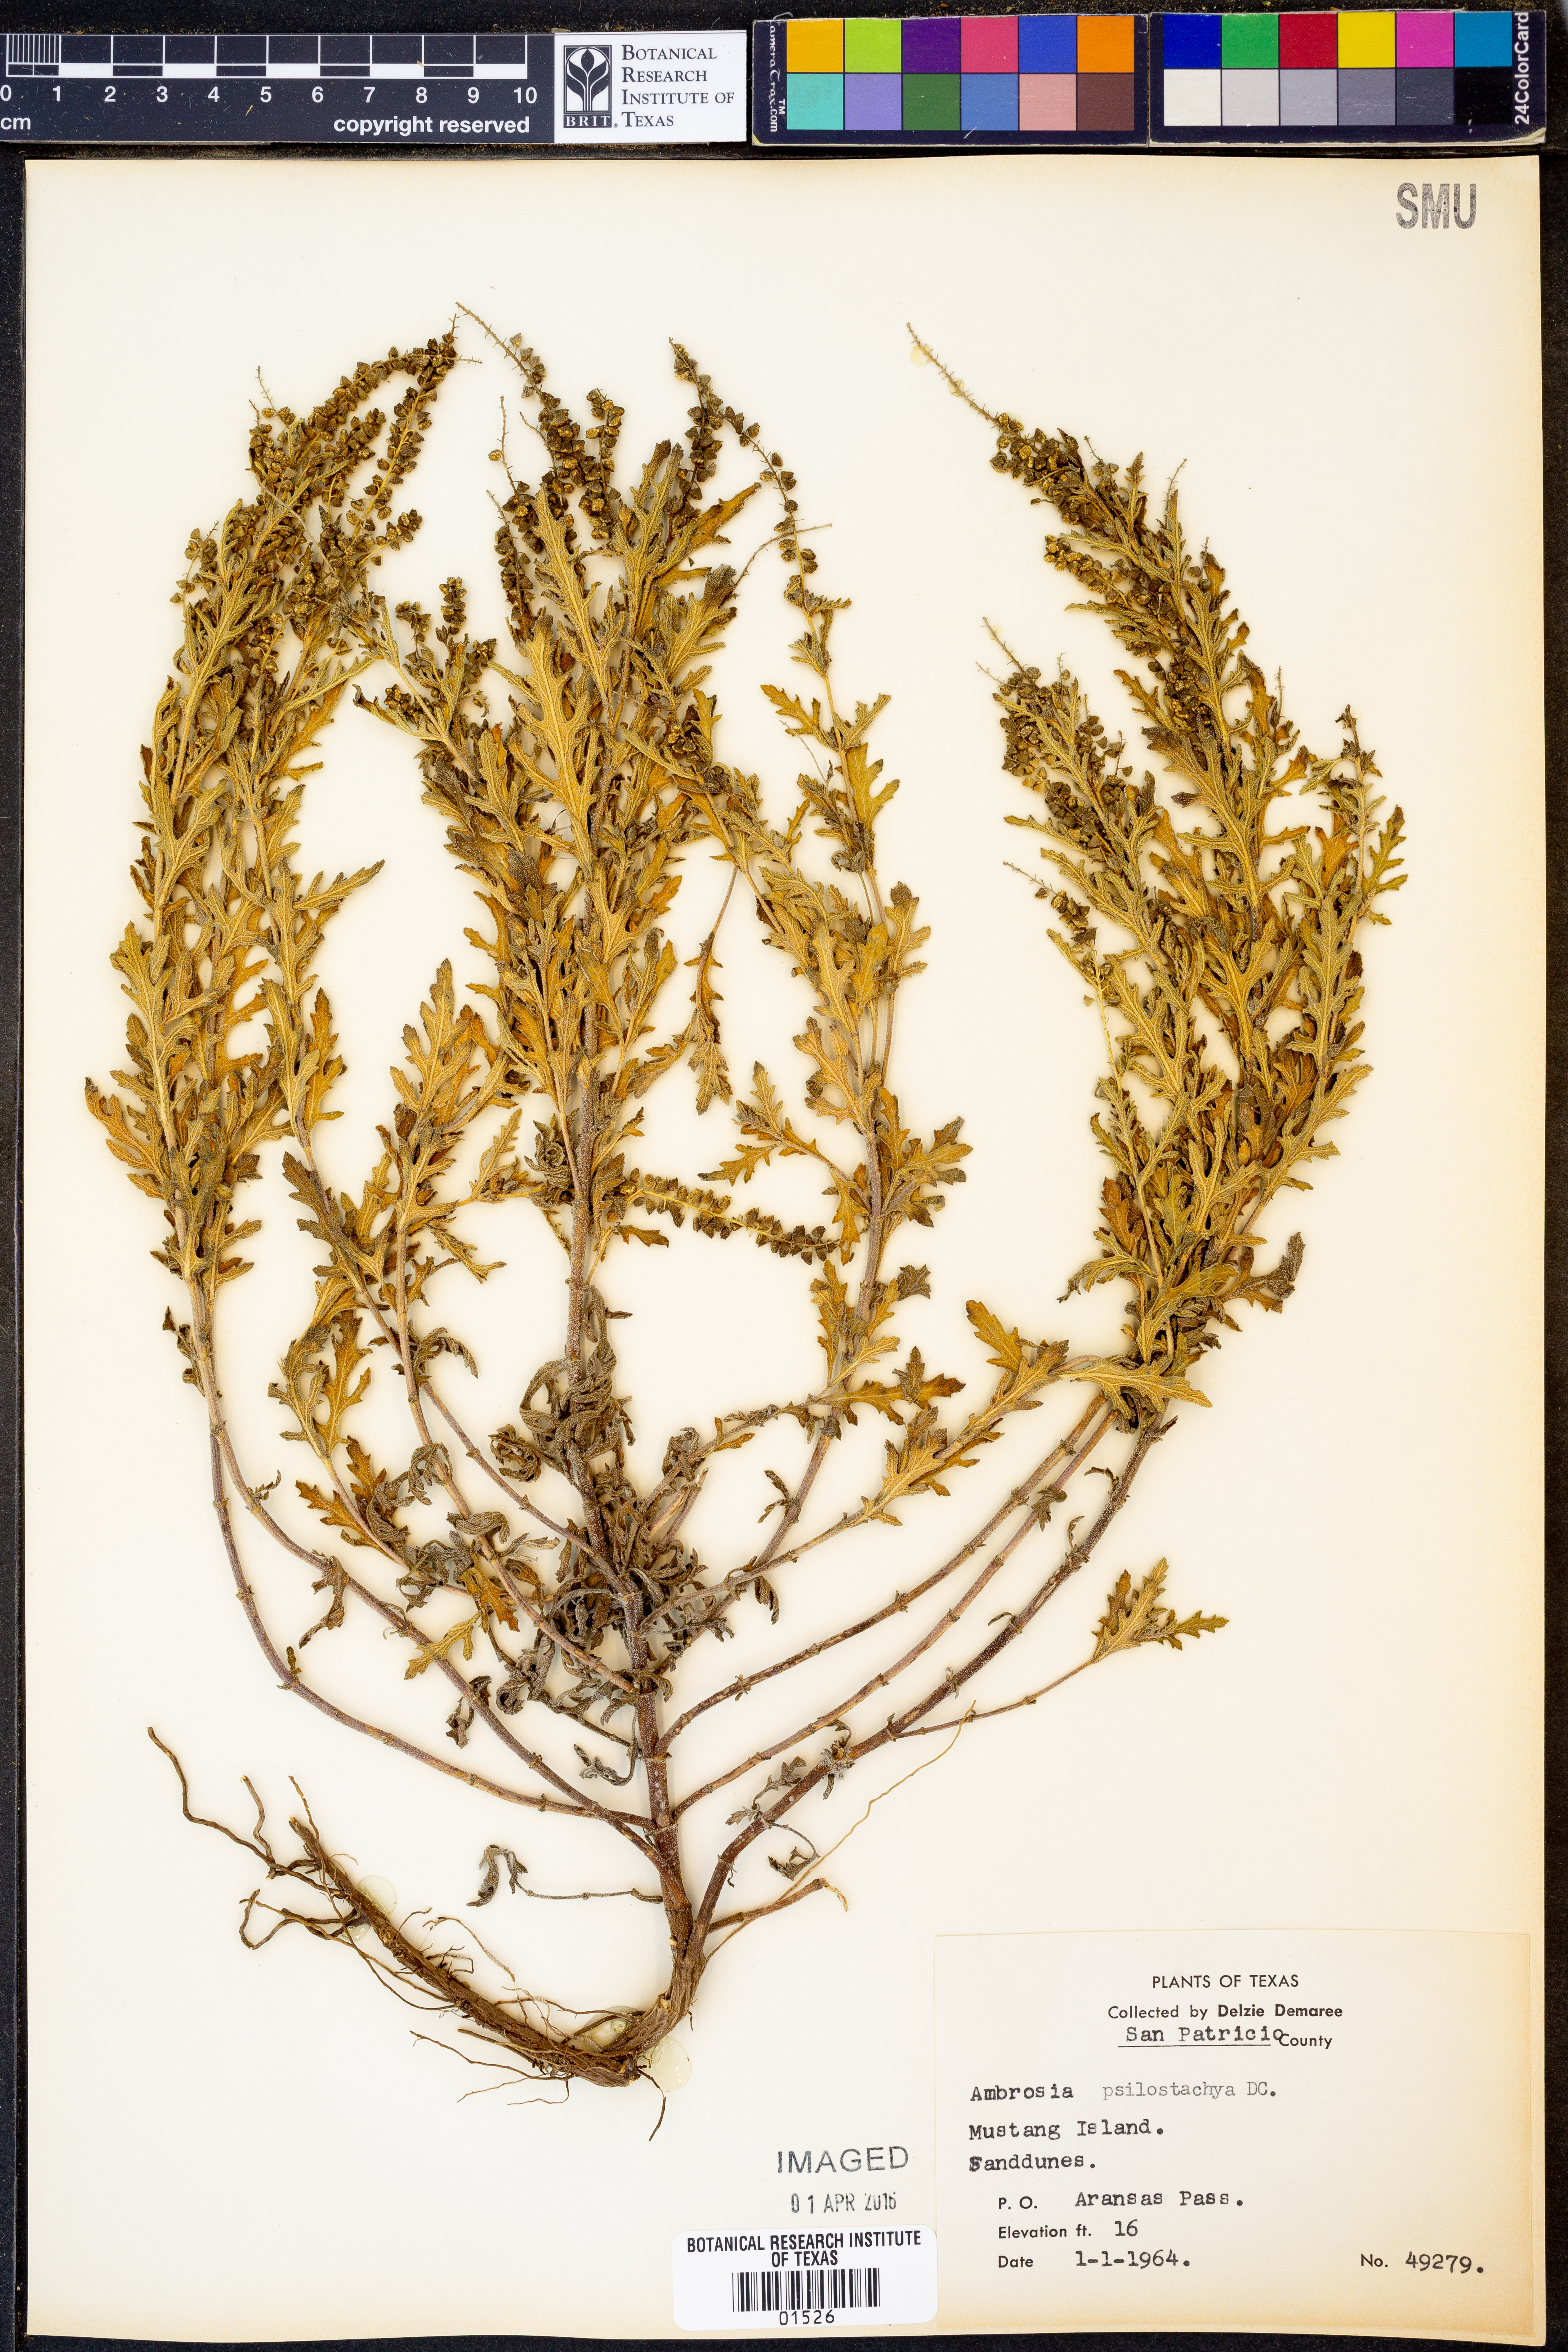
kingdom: Plantae
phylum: Tracheophyta
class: Magnoliopsida
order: Asterales
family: Asteraceae
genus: Ambrosia
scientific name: Ambrosia psilostachya
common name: Perennial ragweed
